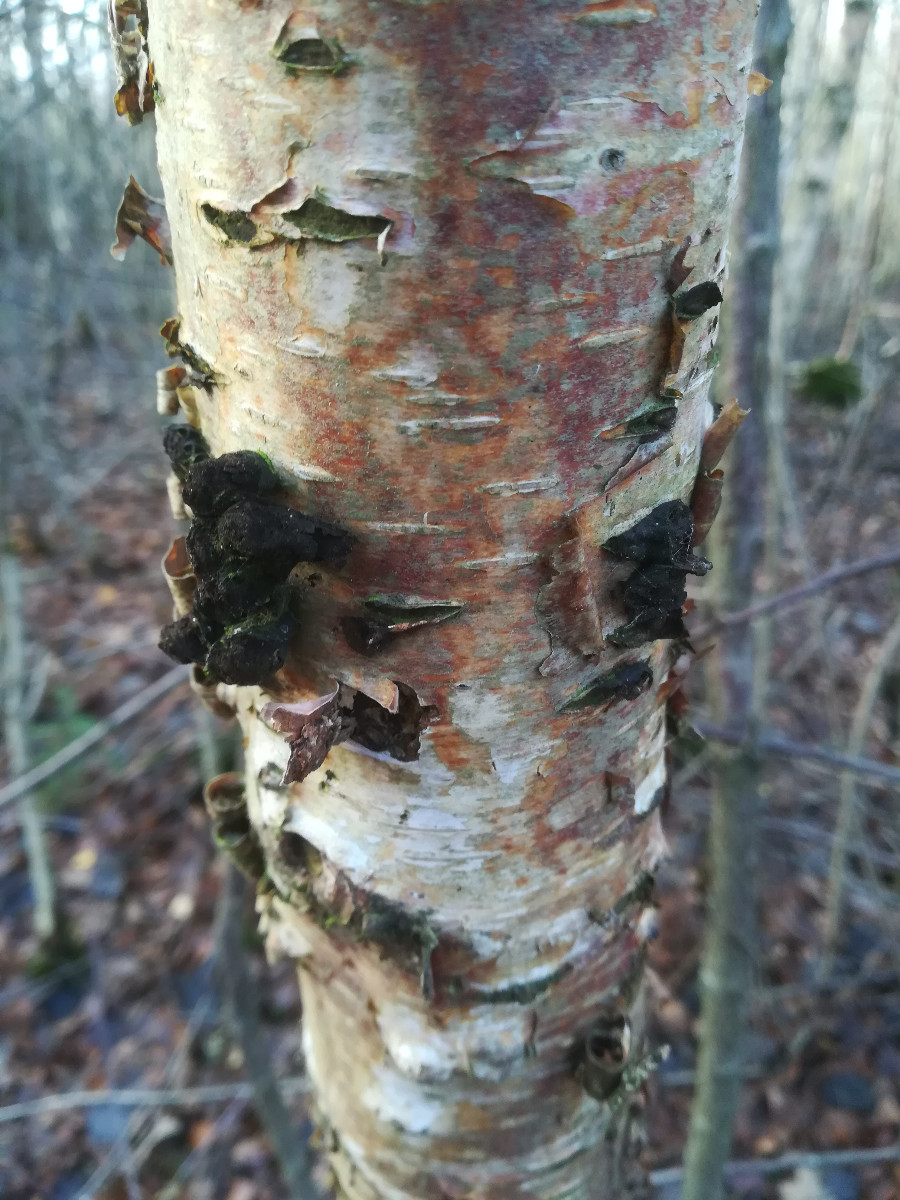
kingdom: Fungi
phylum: Ascomycota
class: Sordariomycetes
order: Xylariales
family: Hypoxylaceae
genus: Daldinia
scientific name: Daldinia
